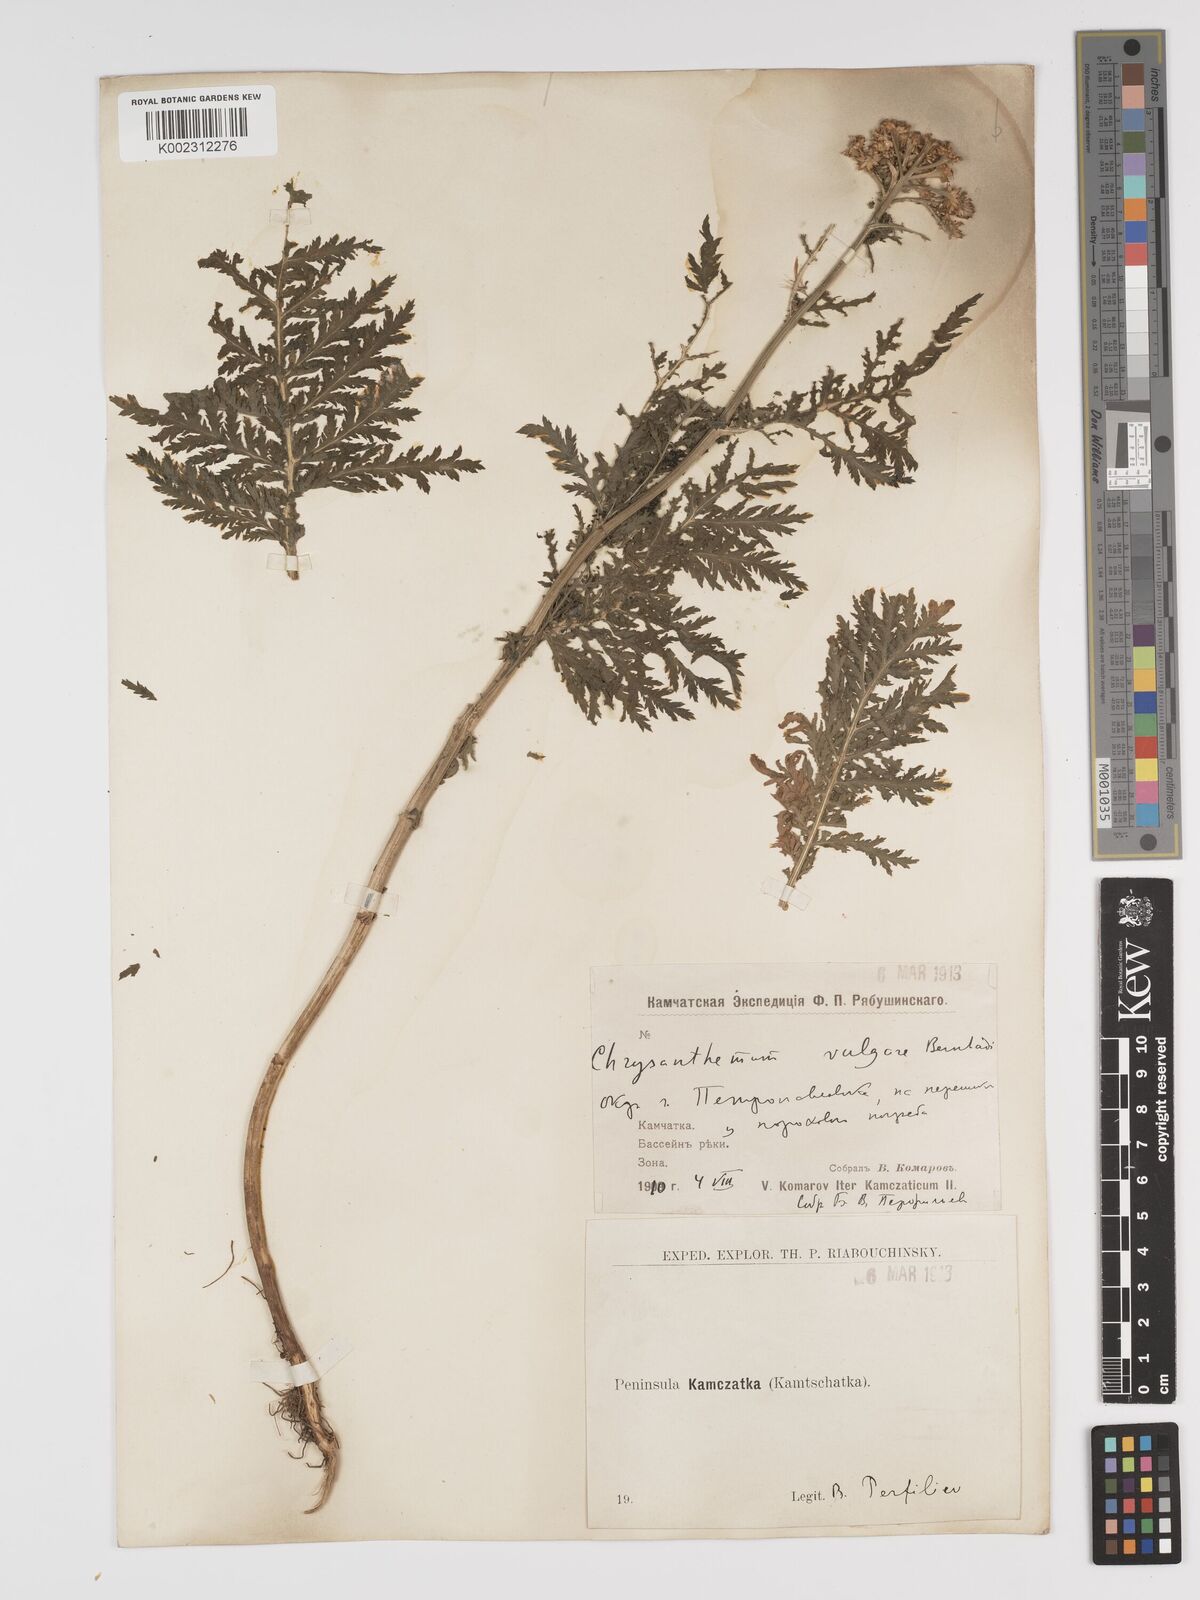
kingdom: Plantae
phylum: Tracheophyta
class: Magnoliopsida
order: Asterales
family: Asteraceae
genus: Tanacetum
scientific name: Tanacetum vulgare
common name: Common tansy
